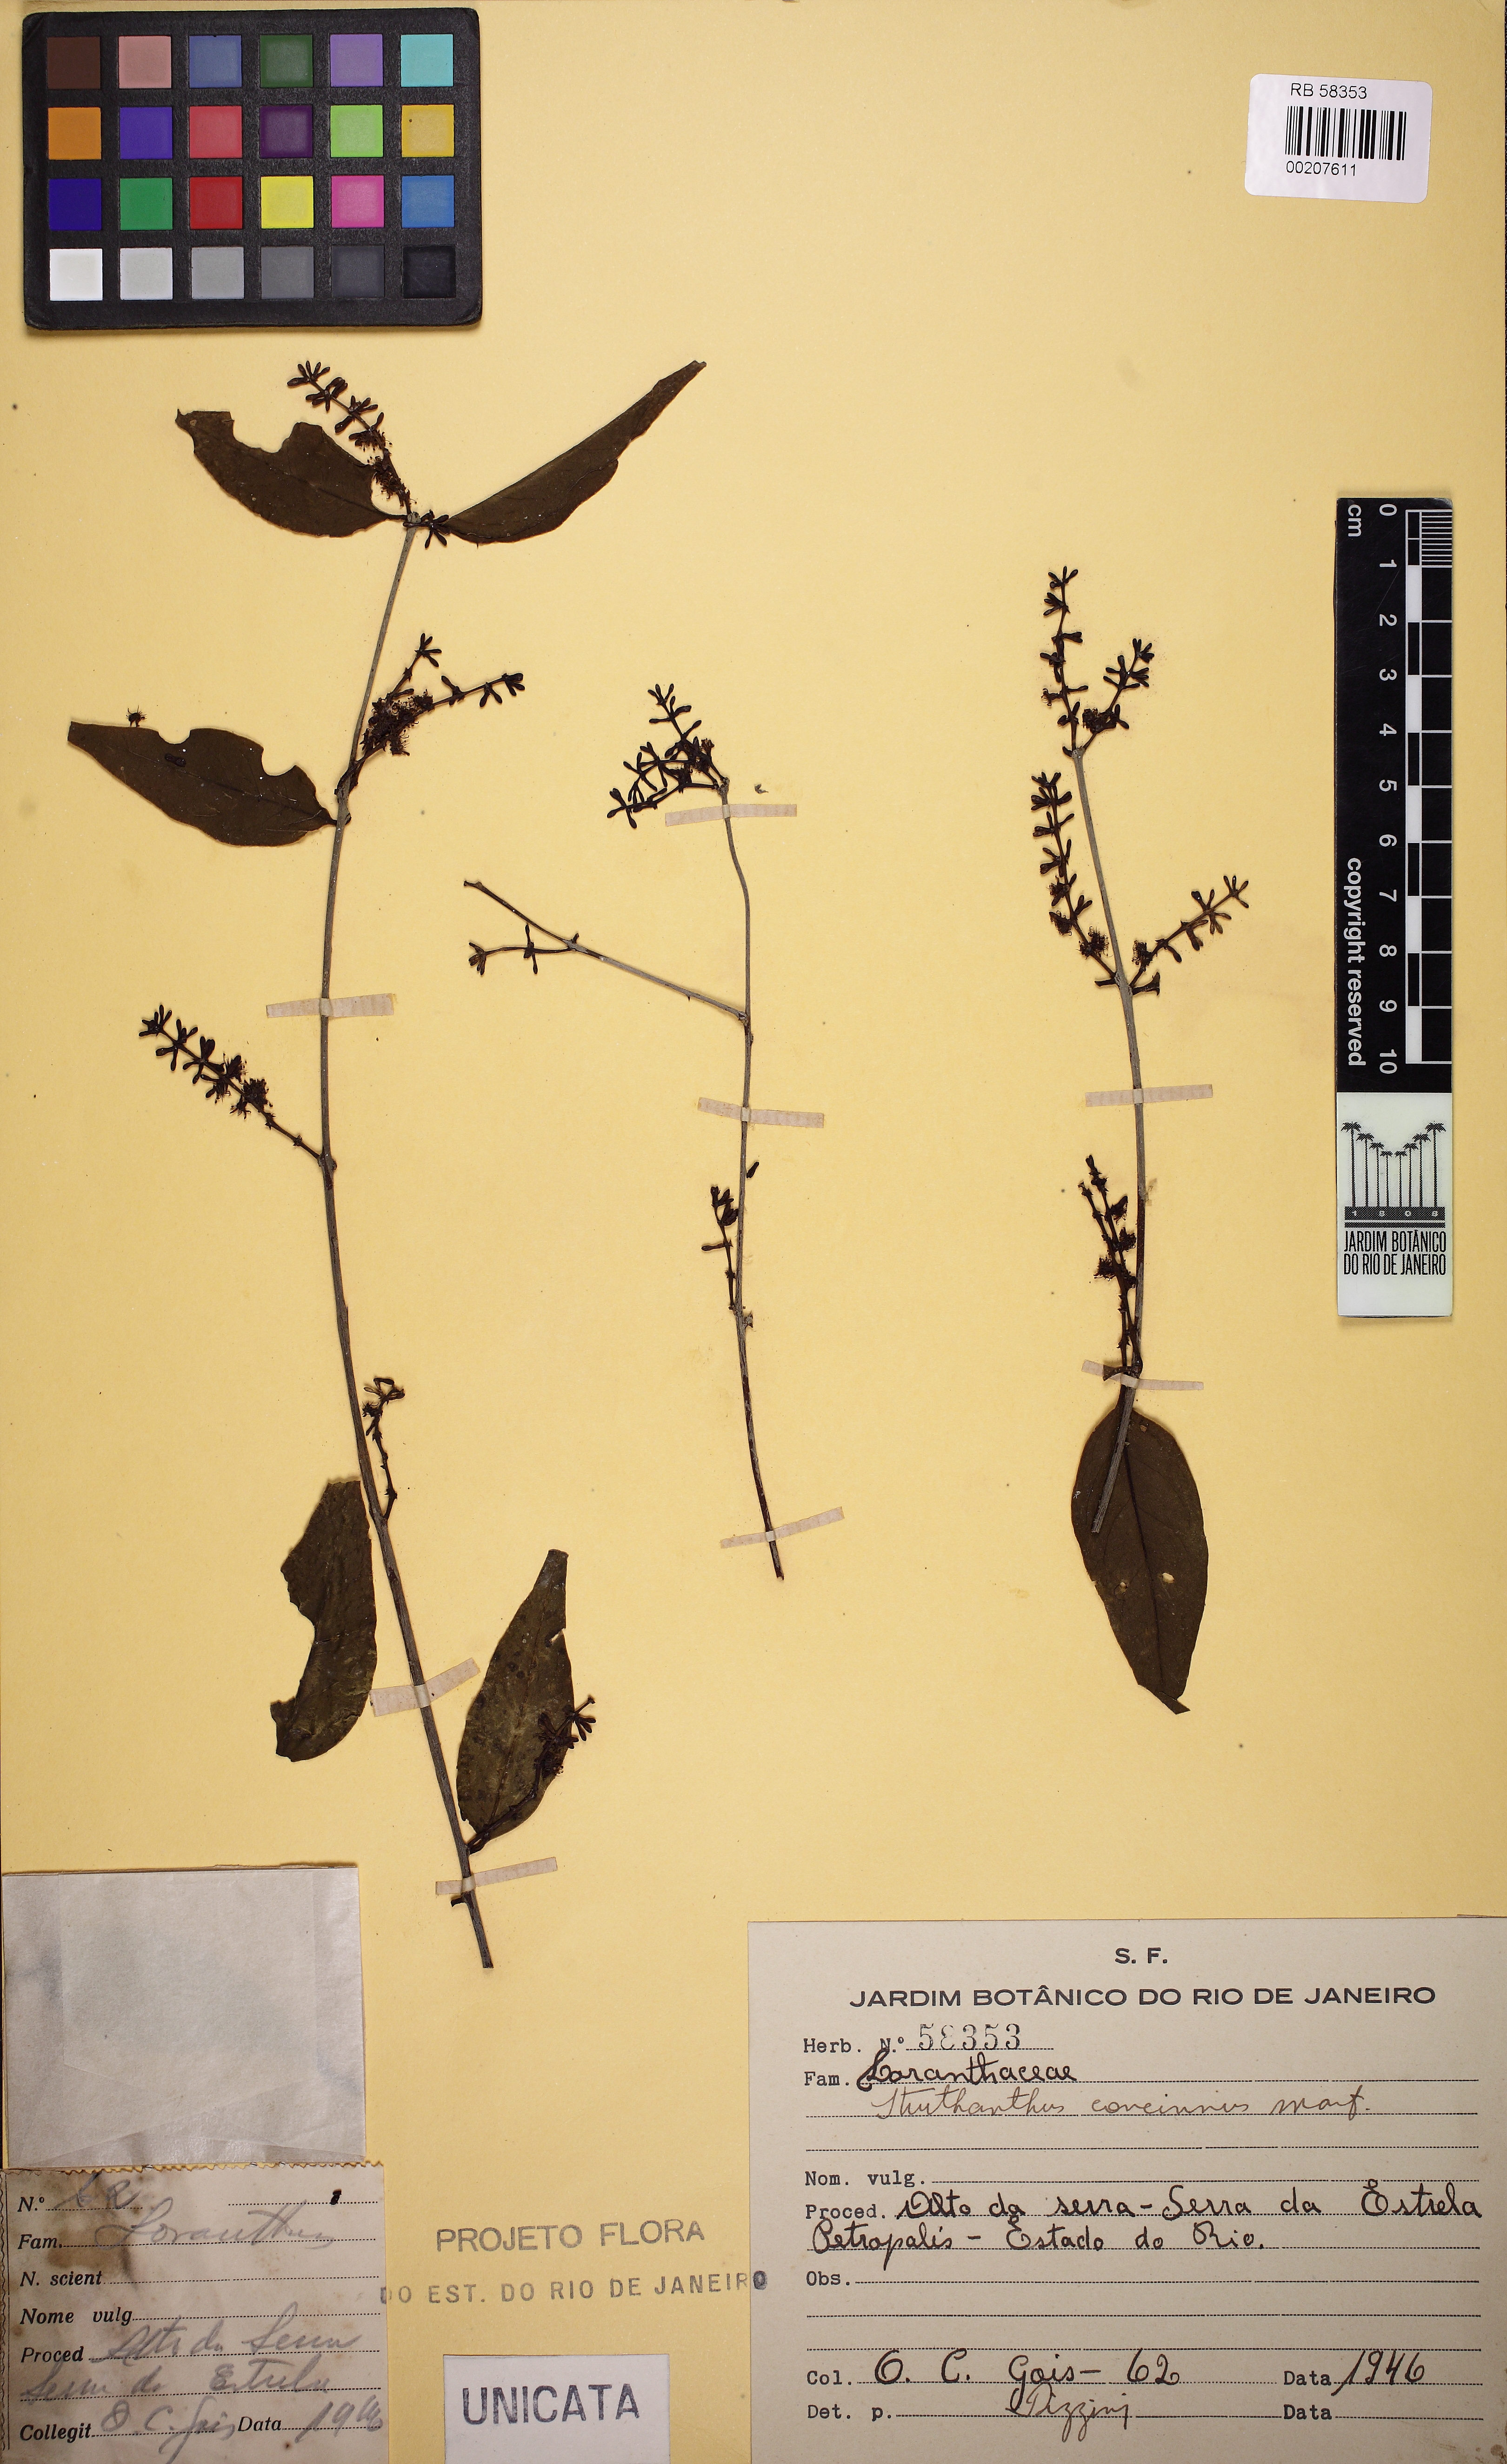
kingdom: Plantae
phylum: Tracheophyta
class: Magnoliopsida
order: Santalales
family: Loranthaceae
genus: Struthanthus
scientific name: Struthanthus concinnus
